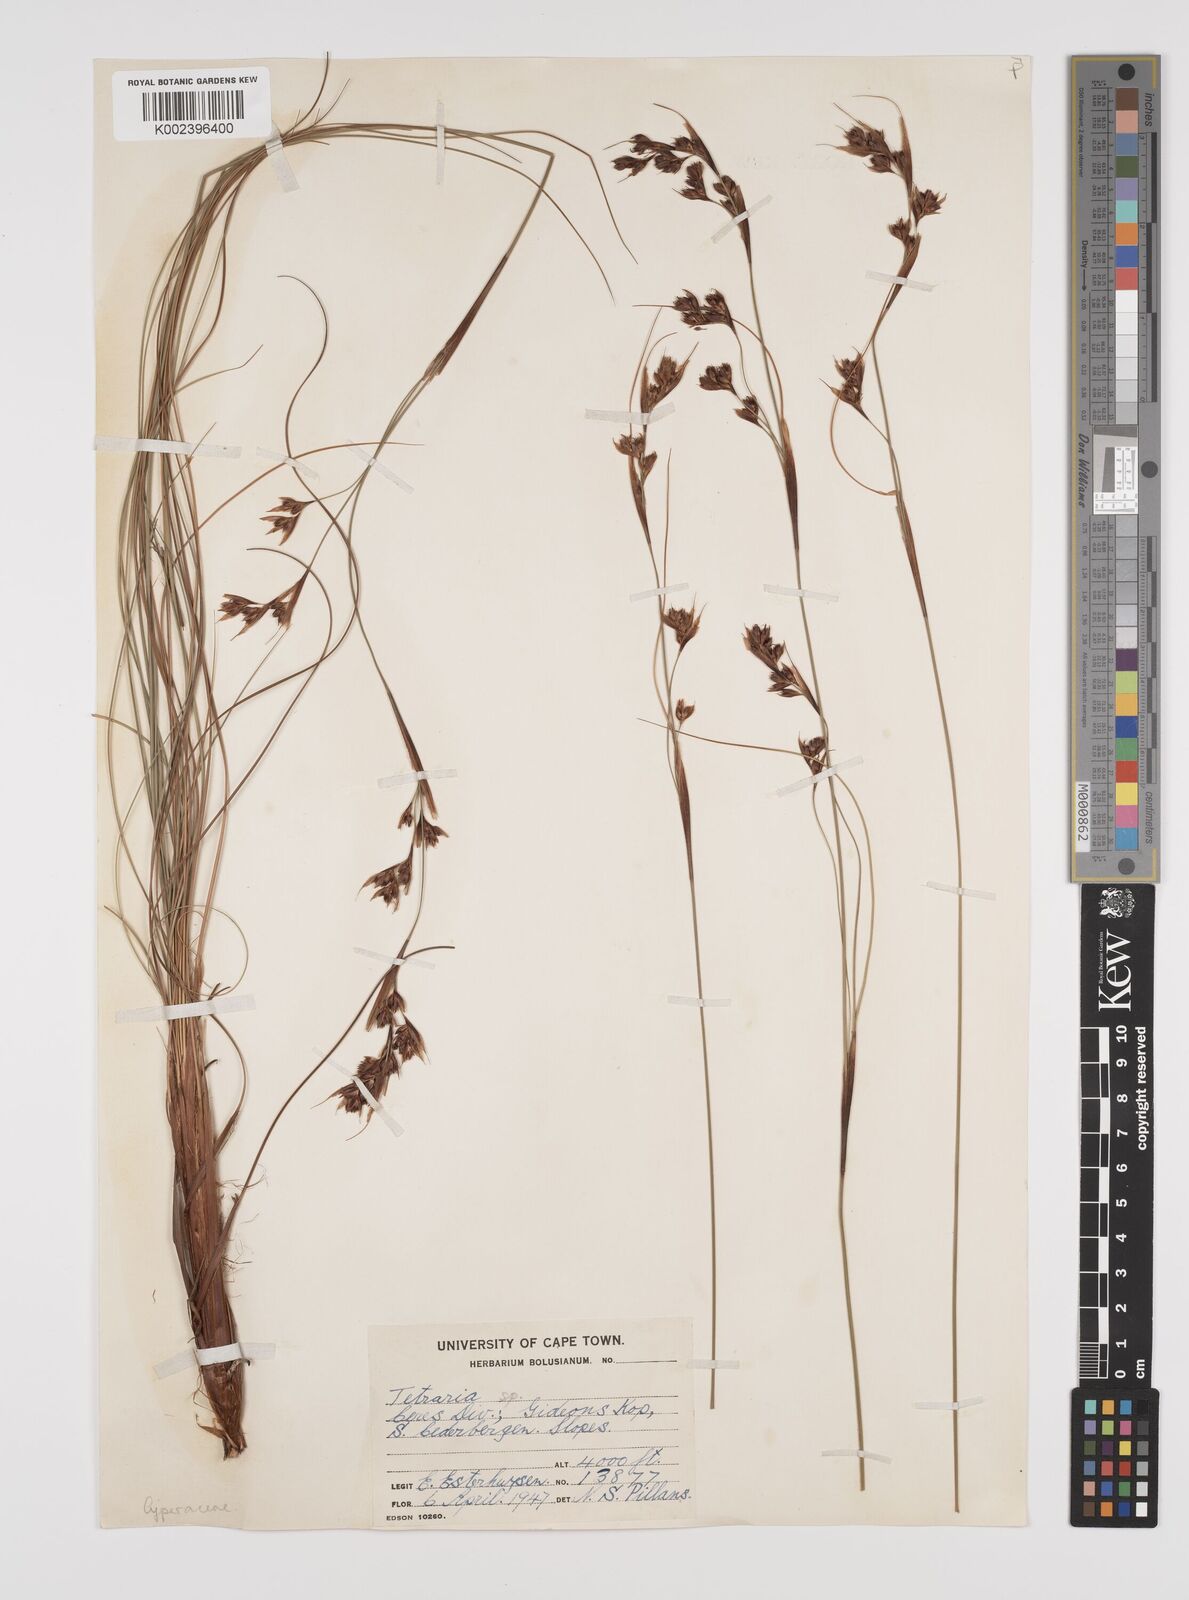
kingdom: Plantae
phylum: Tracheophyta
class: Liliopsida
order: Poales
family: Cyperaceae
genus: Tetraria
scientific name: Tetraria
